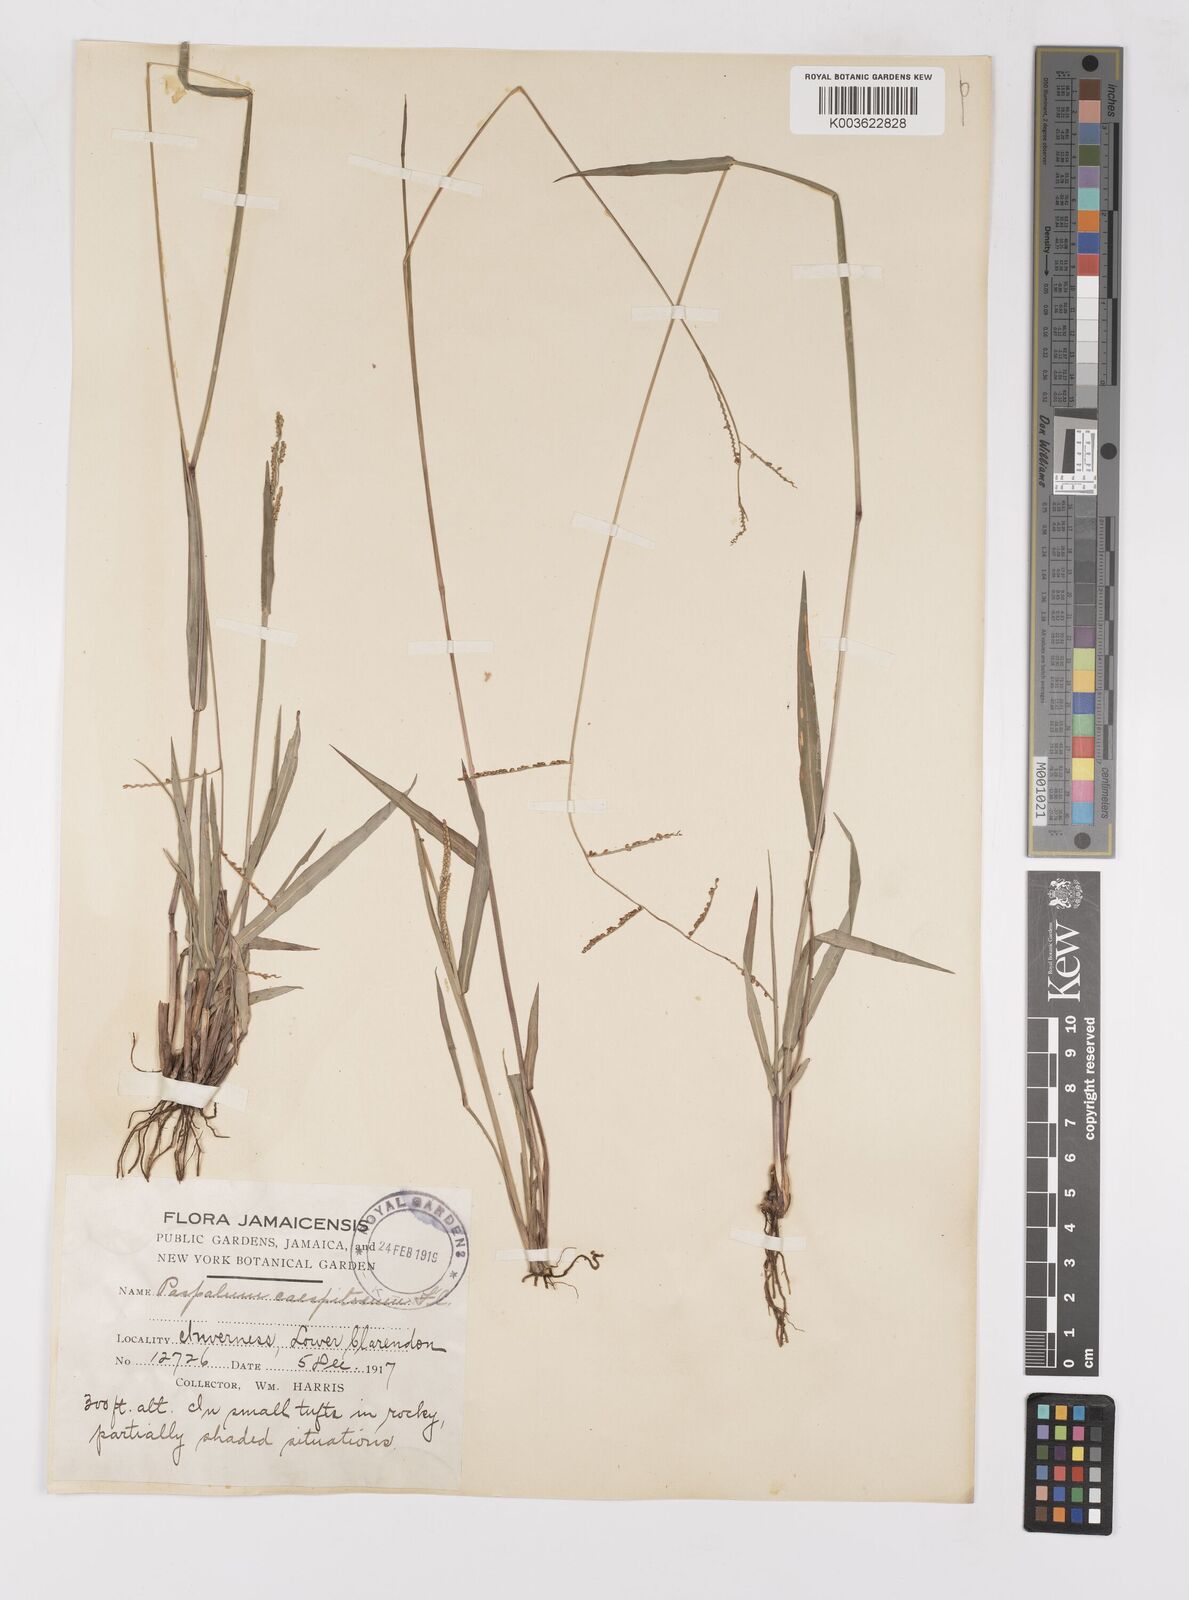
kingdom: Plantae
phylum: Tracheophyta
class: Liliopsida
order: Poales
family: Poaceae
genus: Paspalum
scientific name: Paspalum caespitosum
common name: Blue crowngrass
